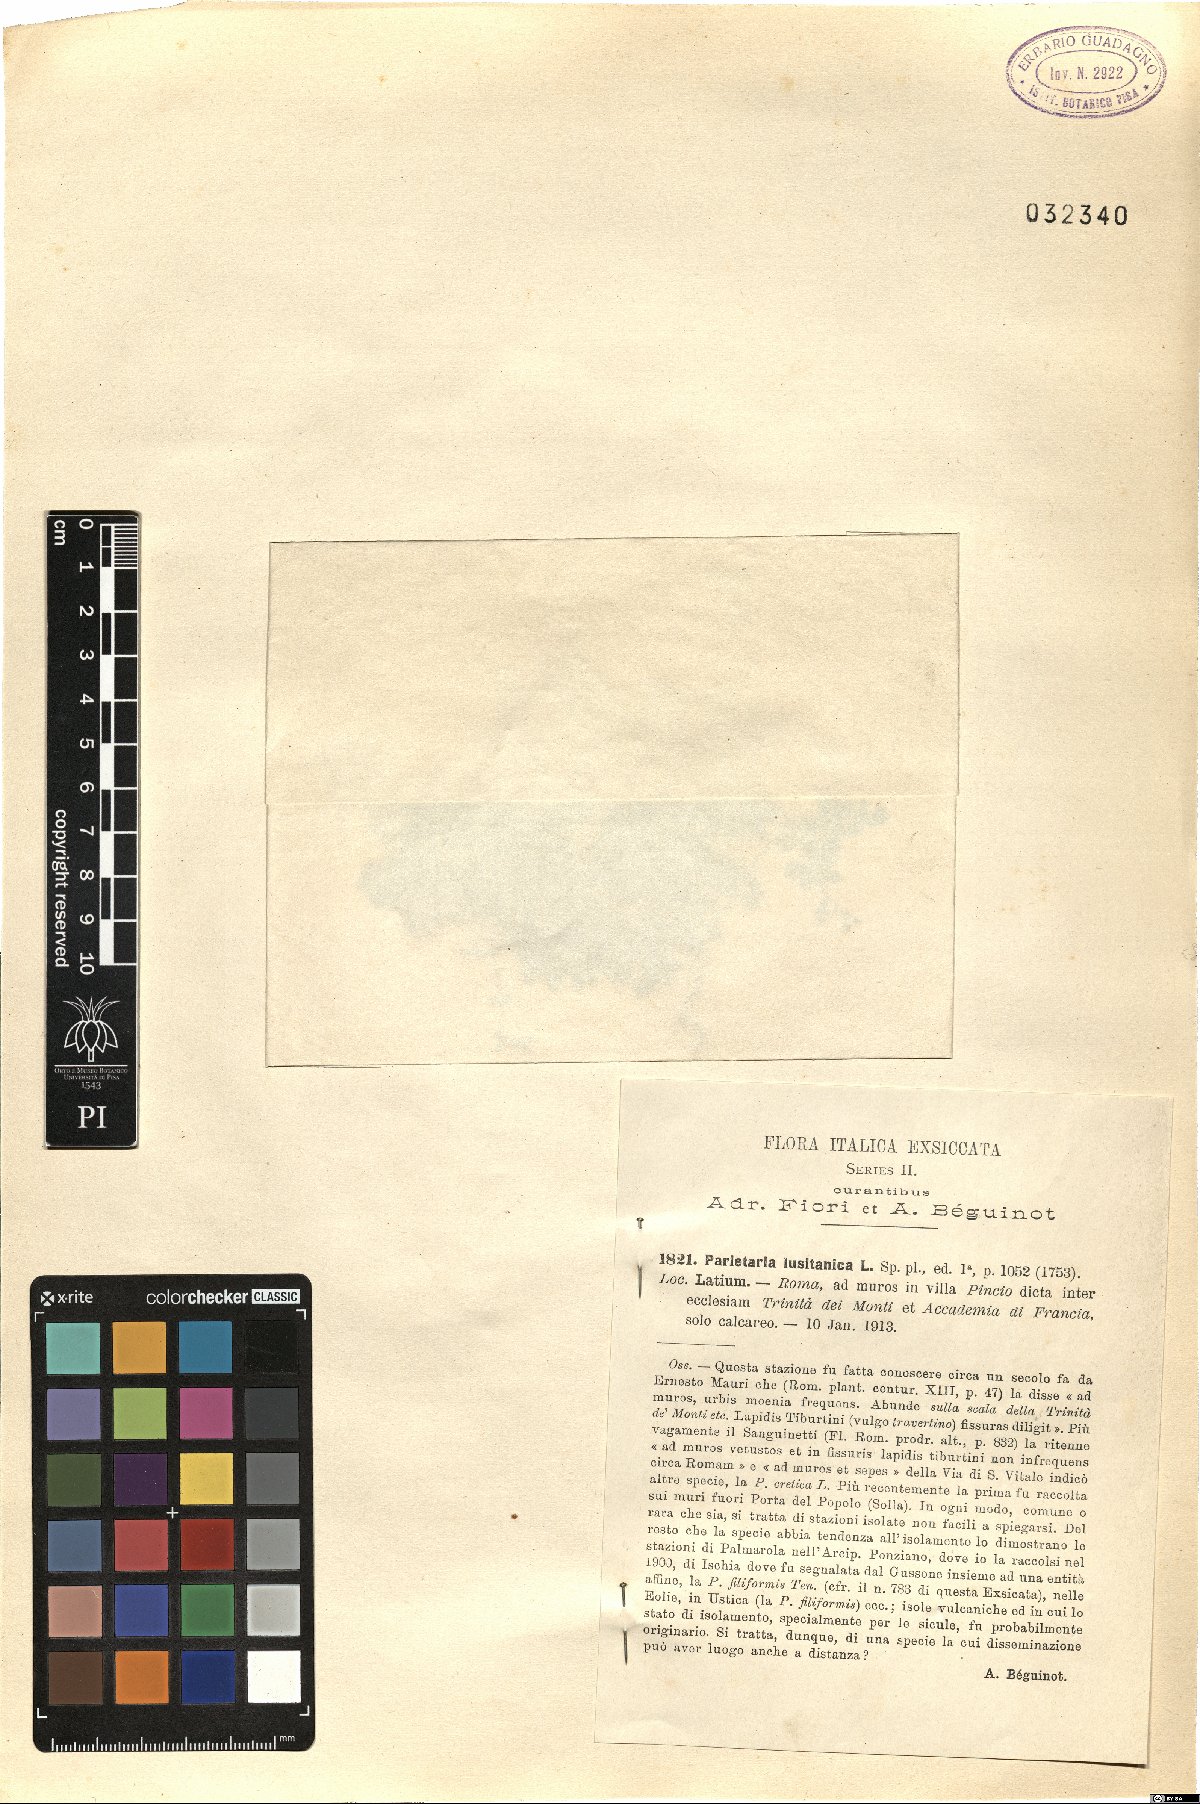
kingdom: Plantae
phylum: Tracheophyta
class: Magnoliopsida
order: Rosales
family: Urticaceae
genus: Parietaria
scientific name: Parietaria lusitanica
